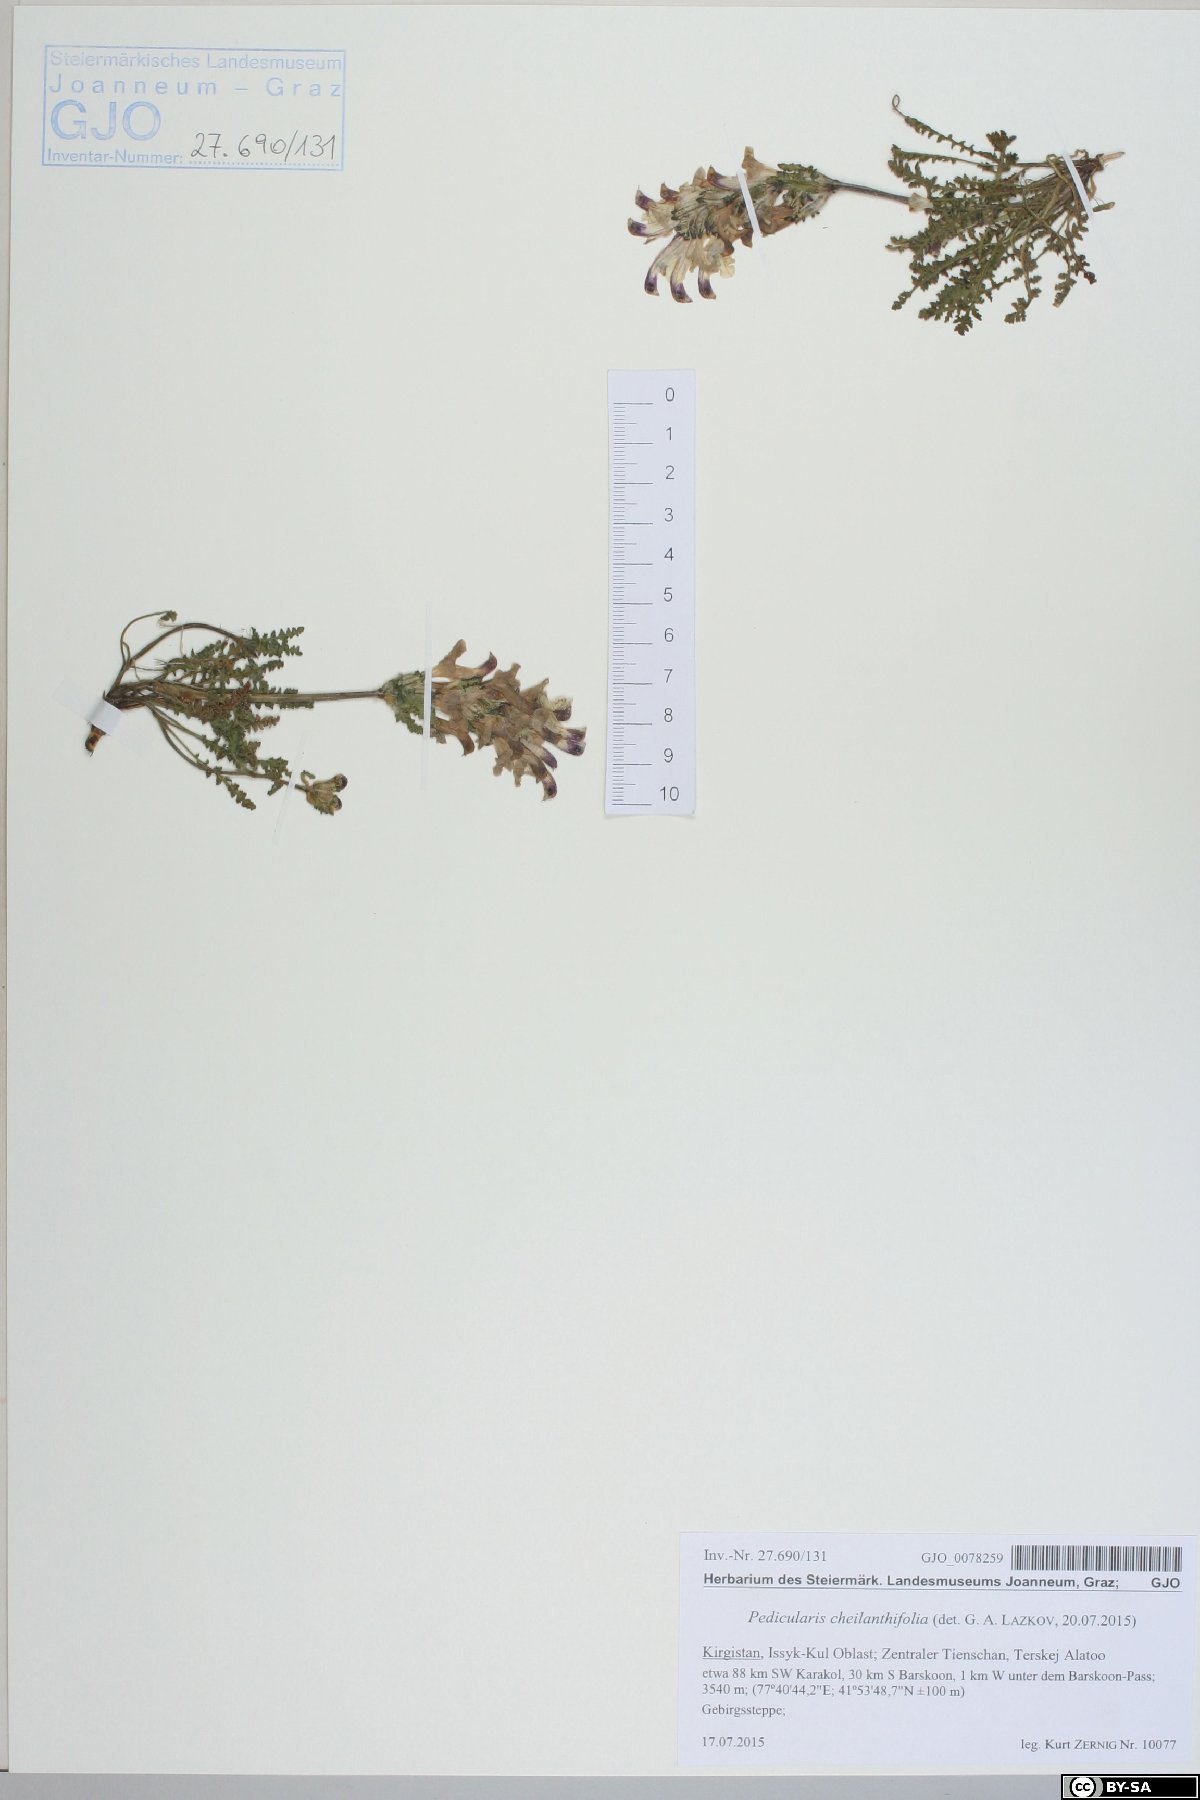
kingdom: Plantae
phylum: Tracheophyta
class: Magnoliopsida
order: Lamiales
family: Orobanchaceae
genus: Pedicularis
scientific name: Pedicularis cheilanthifolia
